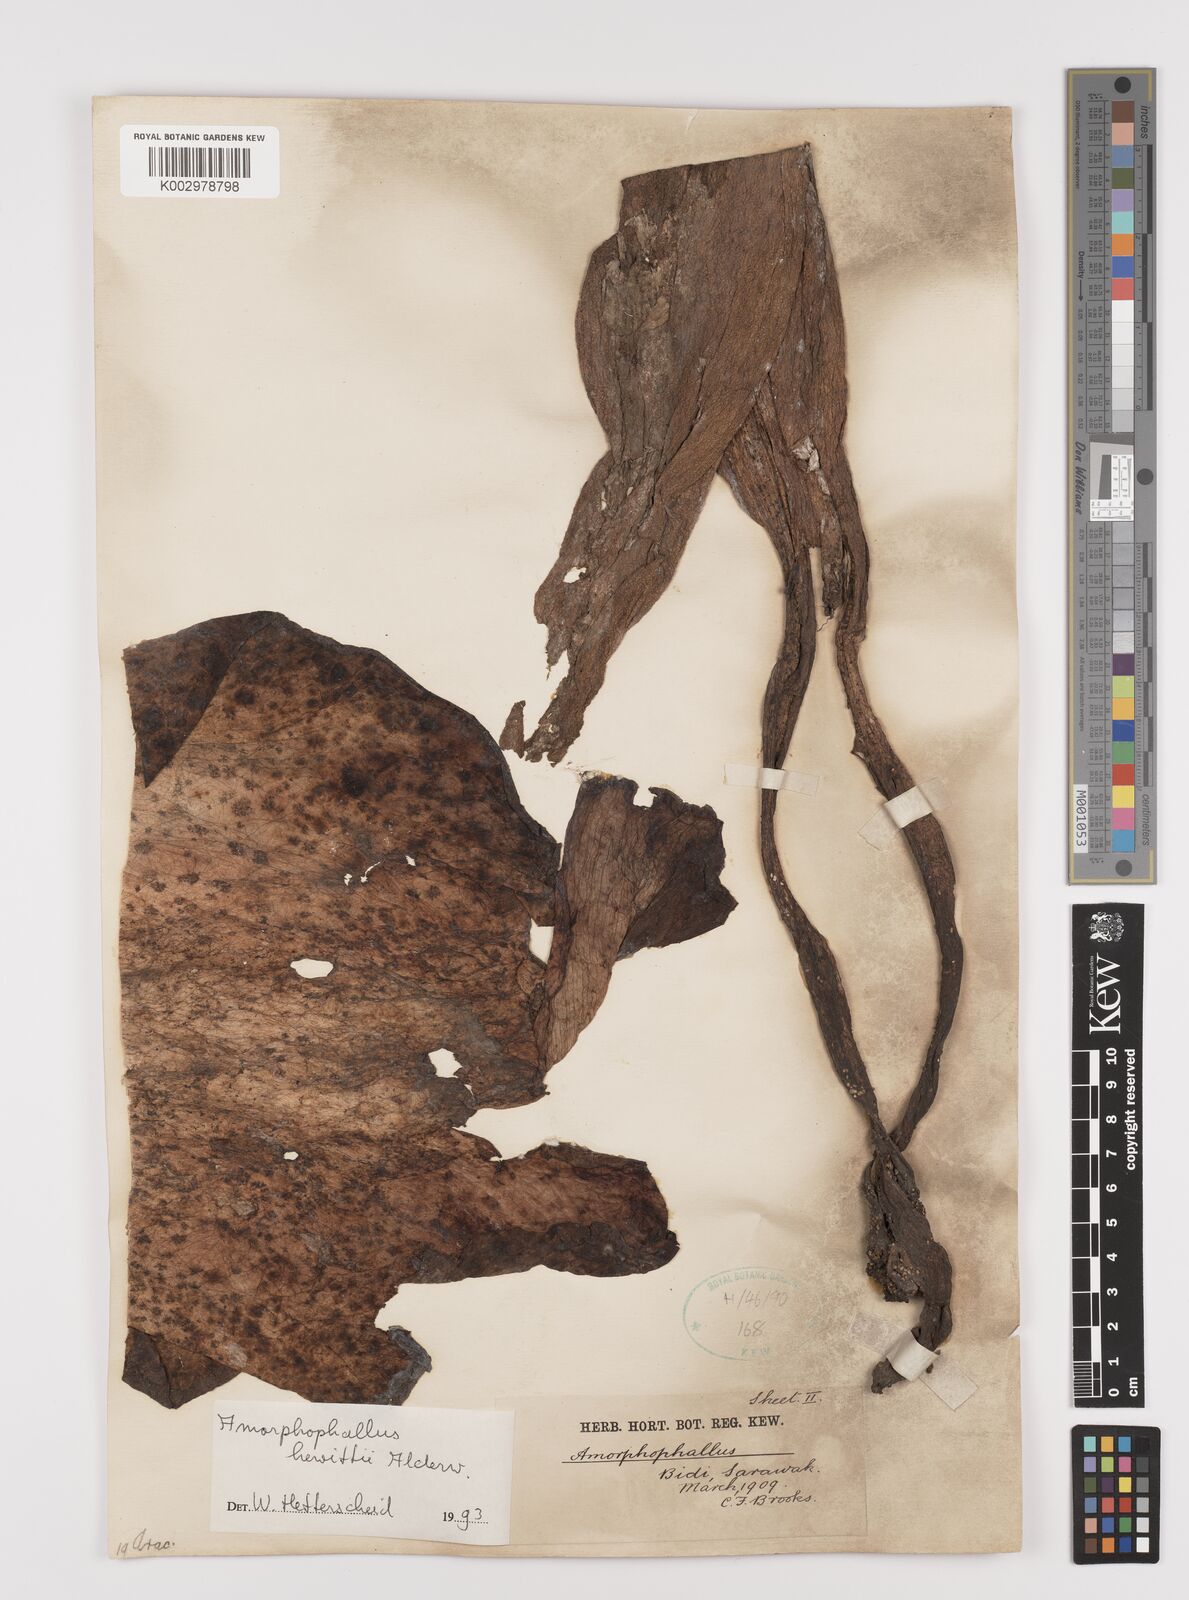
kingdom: Plantae
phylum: Tracheophyta
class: Liliopsida
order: Alismatales
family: Araceae
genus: Amorphophallus
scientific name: Amorphophallus hewittii
